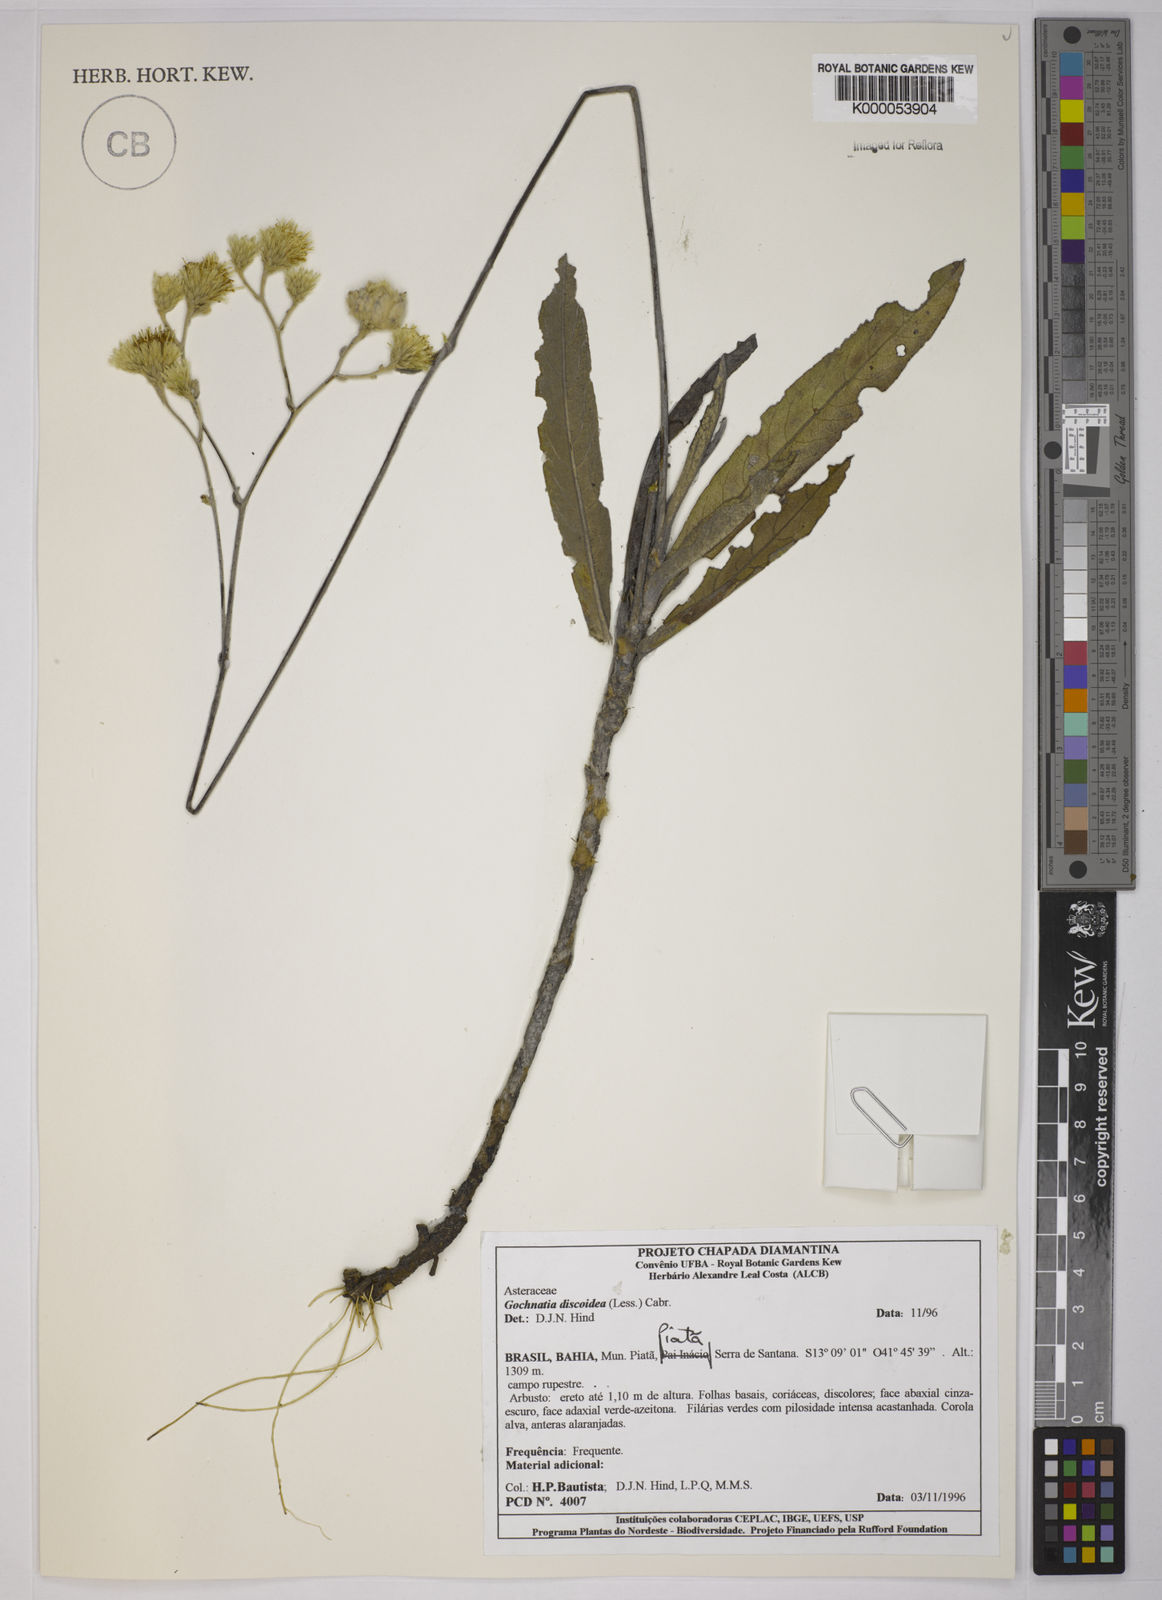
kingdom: Plantae
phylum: Tracheophyta
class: Magnoliopsida
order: Asterales
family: Asteraceae
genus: Richterago
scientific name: Richterago discoidea
